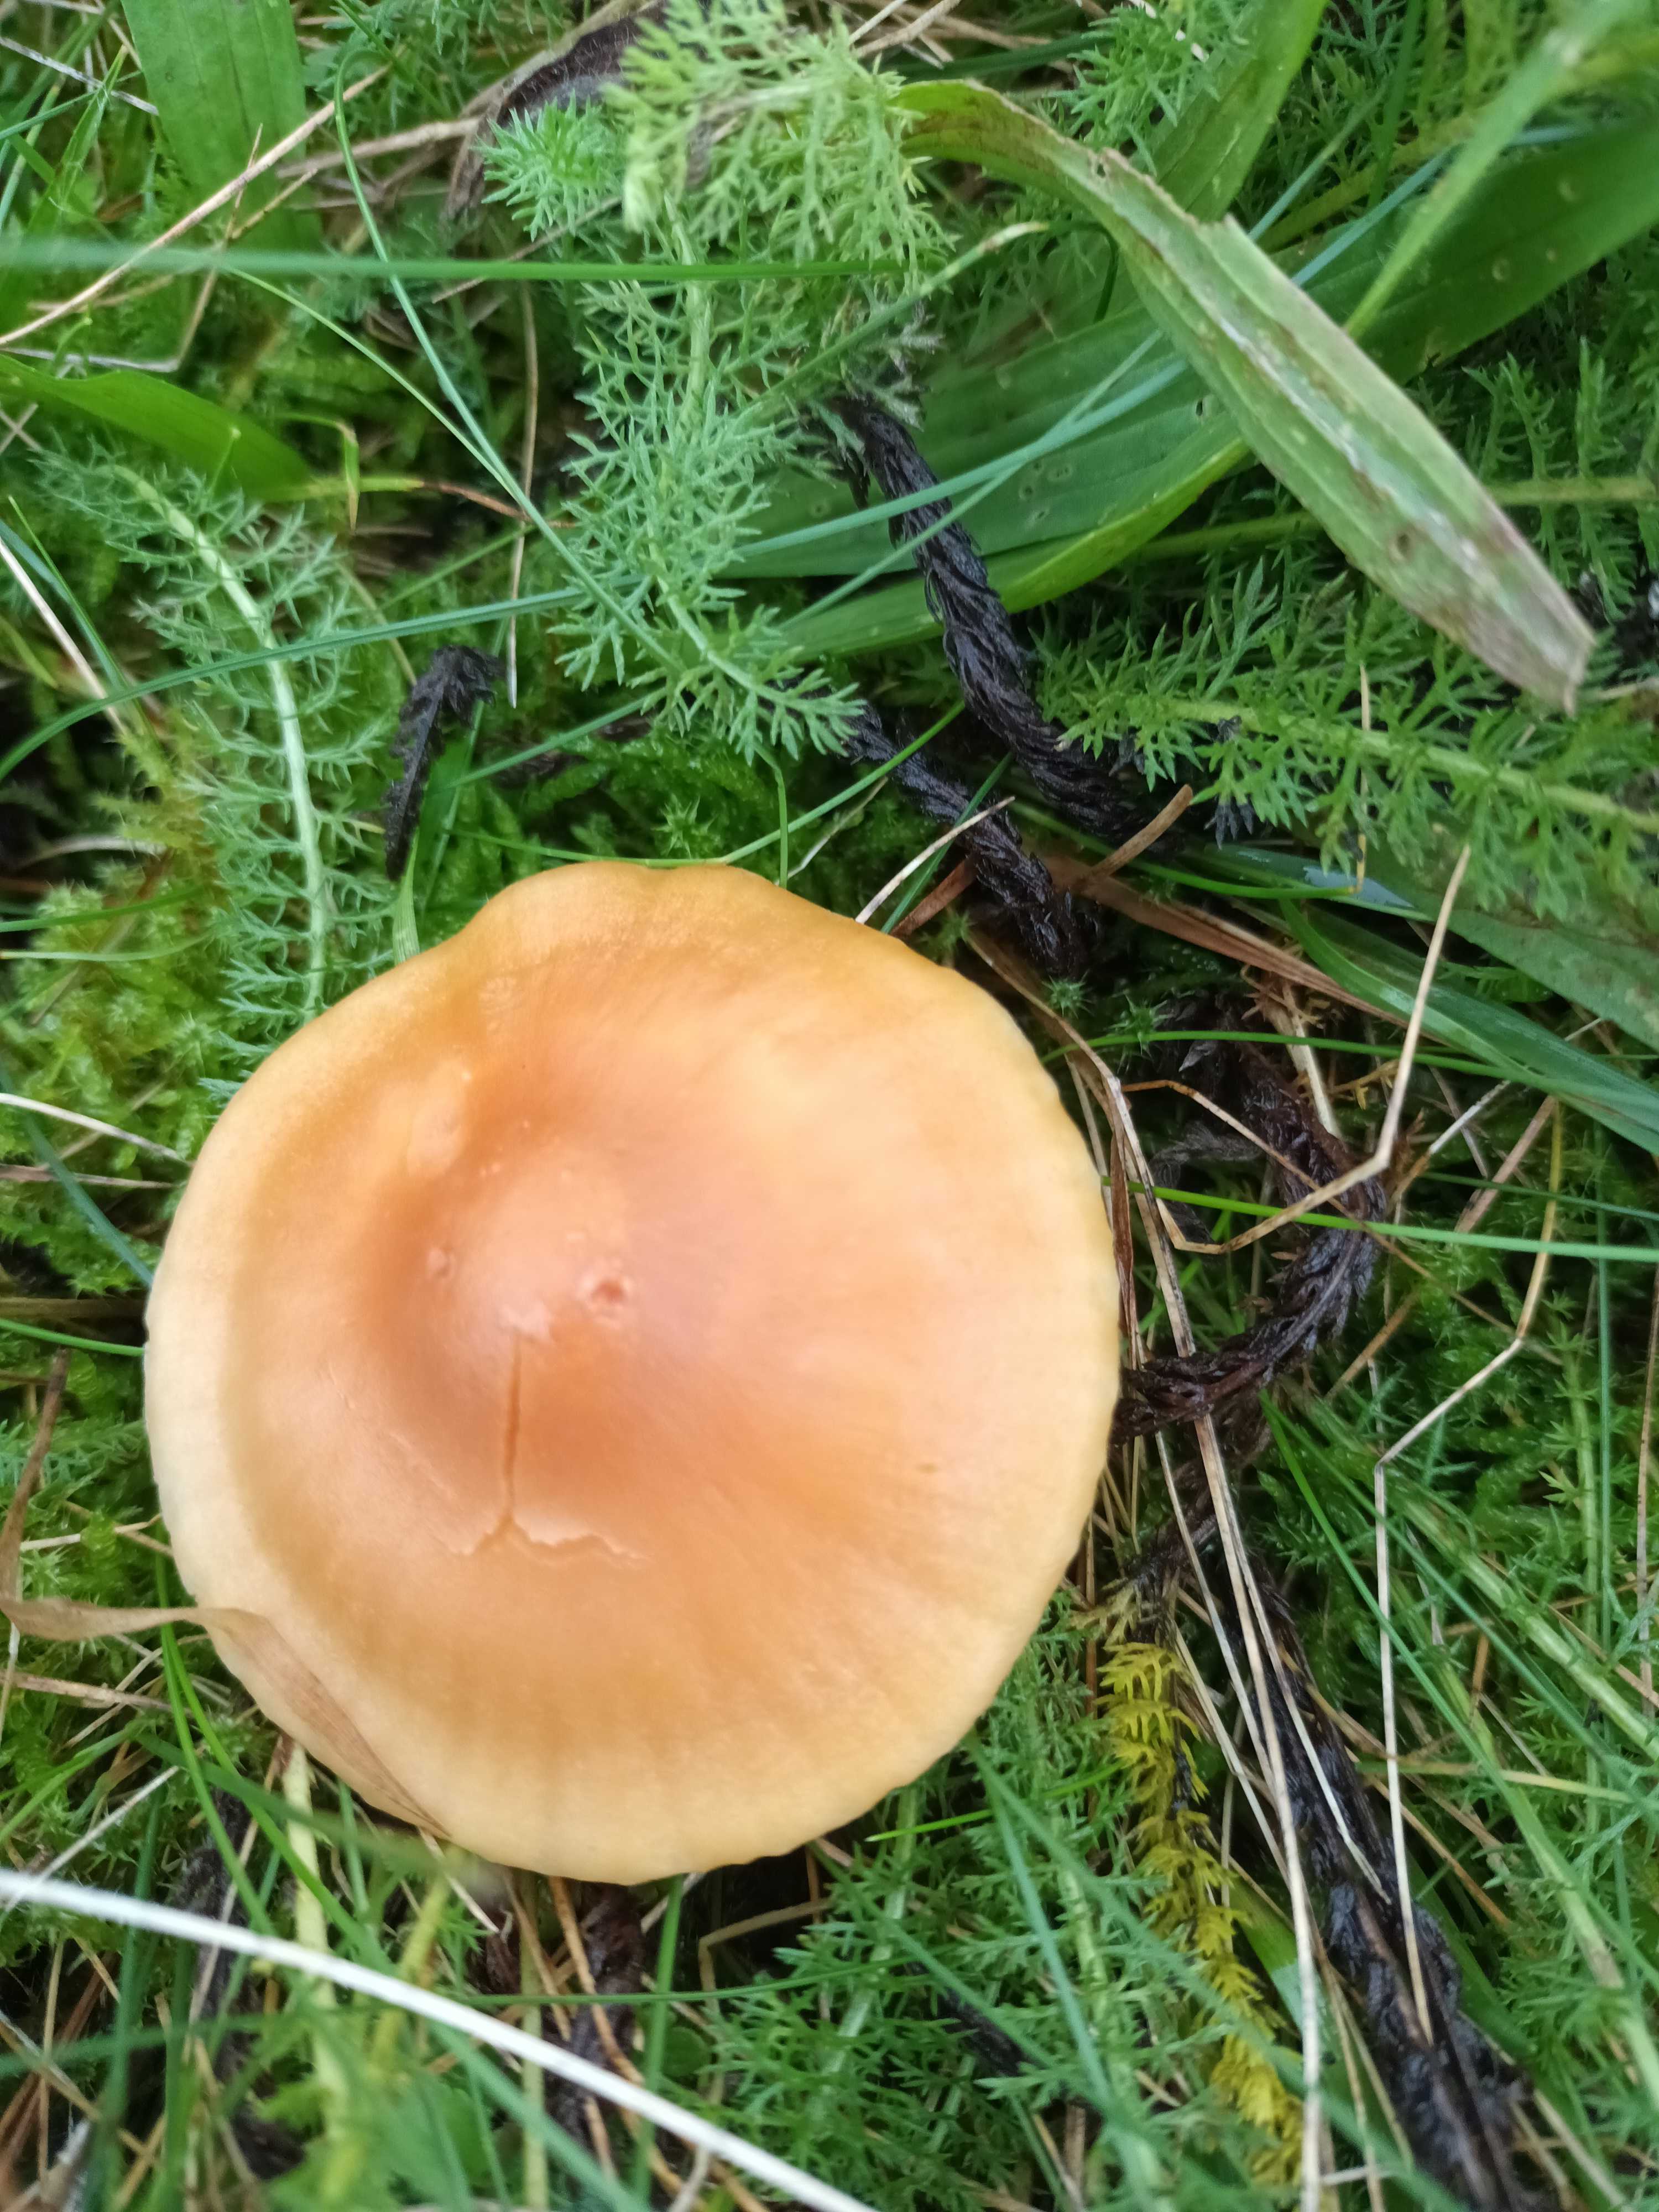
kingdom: Fungi
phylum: Basidiomycota
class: Agaricomycetes
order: Agaricales
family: Hygrophoraceae
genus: Cuphophyllus
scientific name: Cuphophyllus pratensis
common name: eng-vokshat
